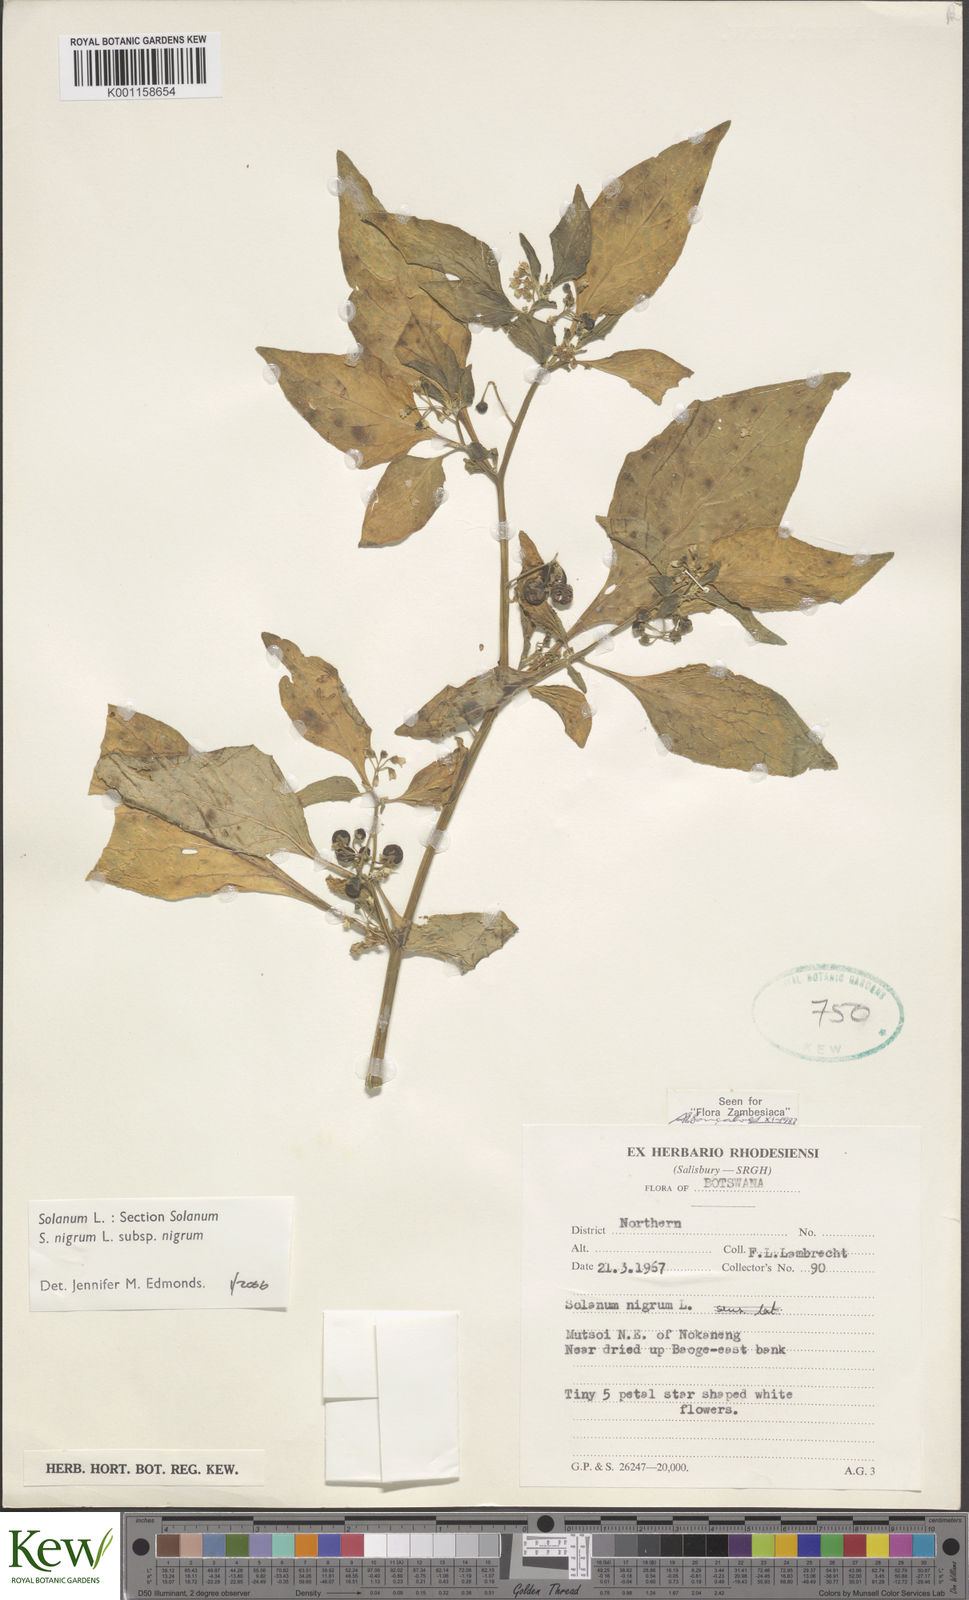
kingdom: Plantae
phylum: Tracheophyta
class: Magnoliopsida
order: Solanales
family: Solanaceae
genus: Solanum
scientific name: Solanum nigrum
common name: Black nightshade
